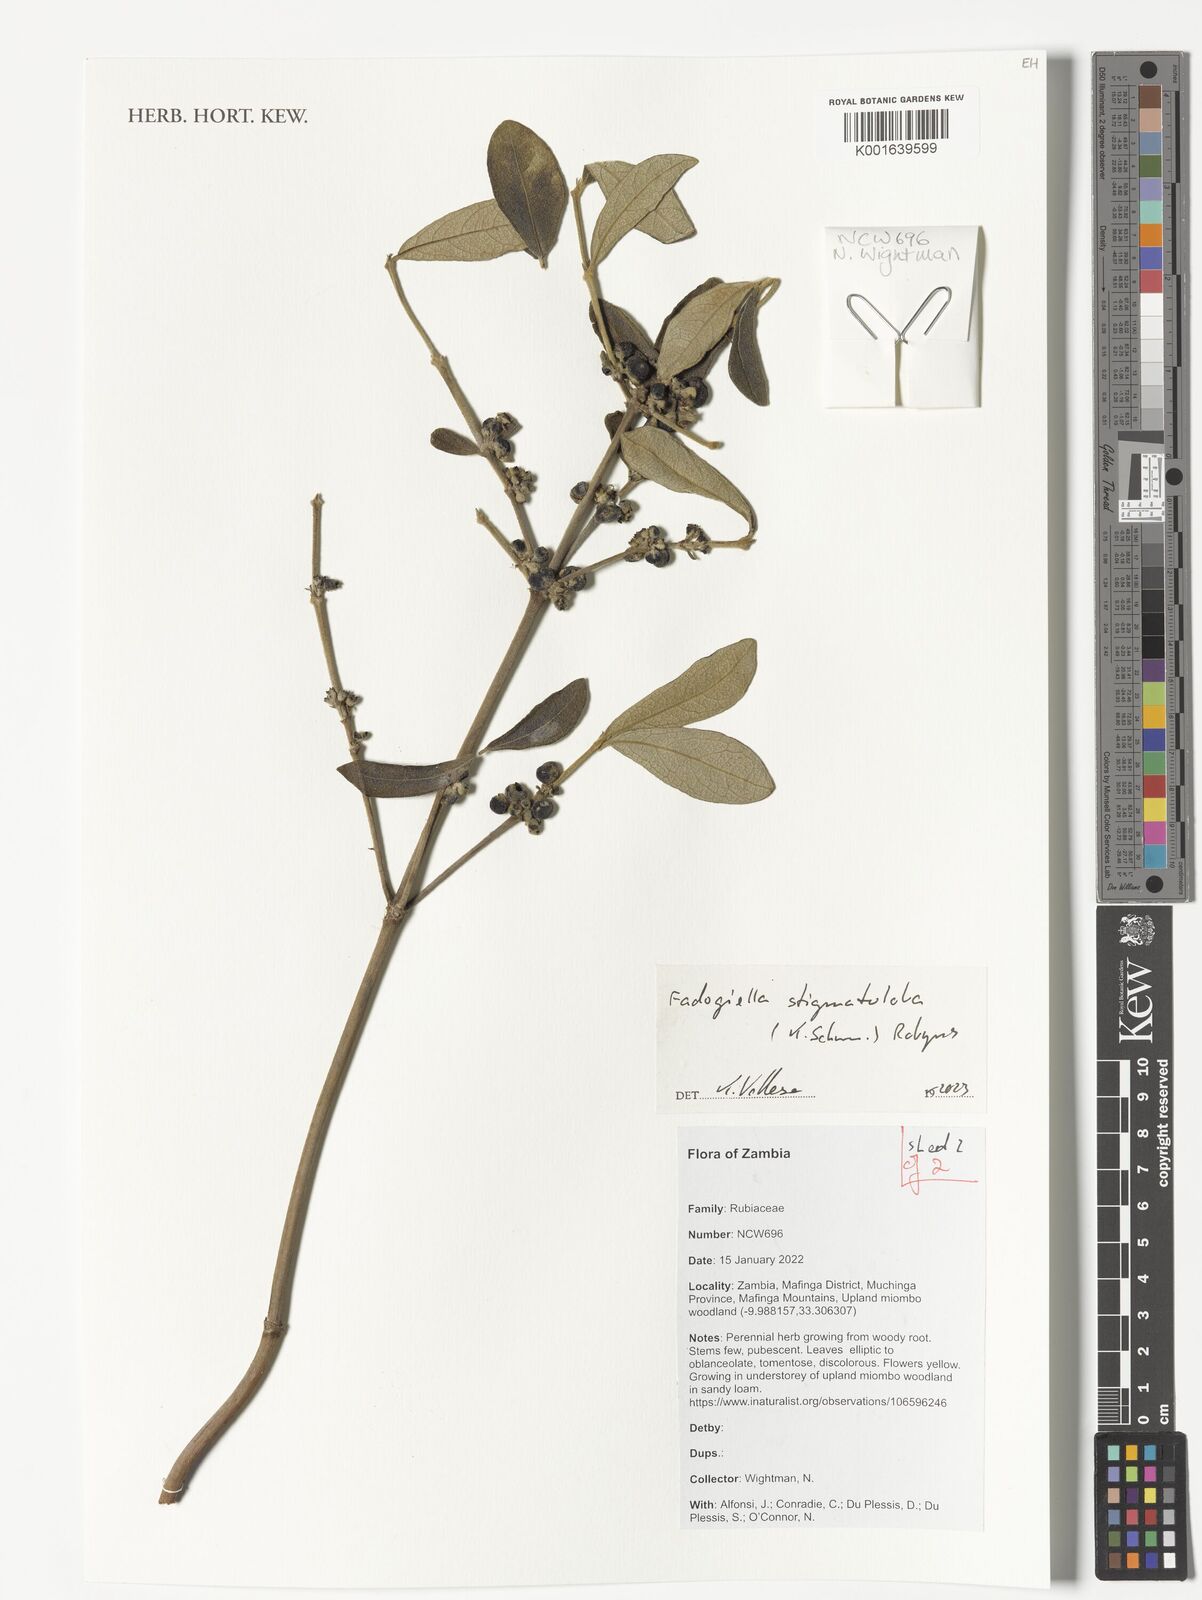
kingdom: Plantae
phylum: Tracheophyta
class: Magnoliopsida
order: Gentianales
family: Rubiaceae
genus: Fadogiella
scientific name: Fadogiella stigmatoloba
